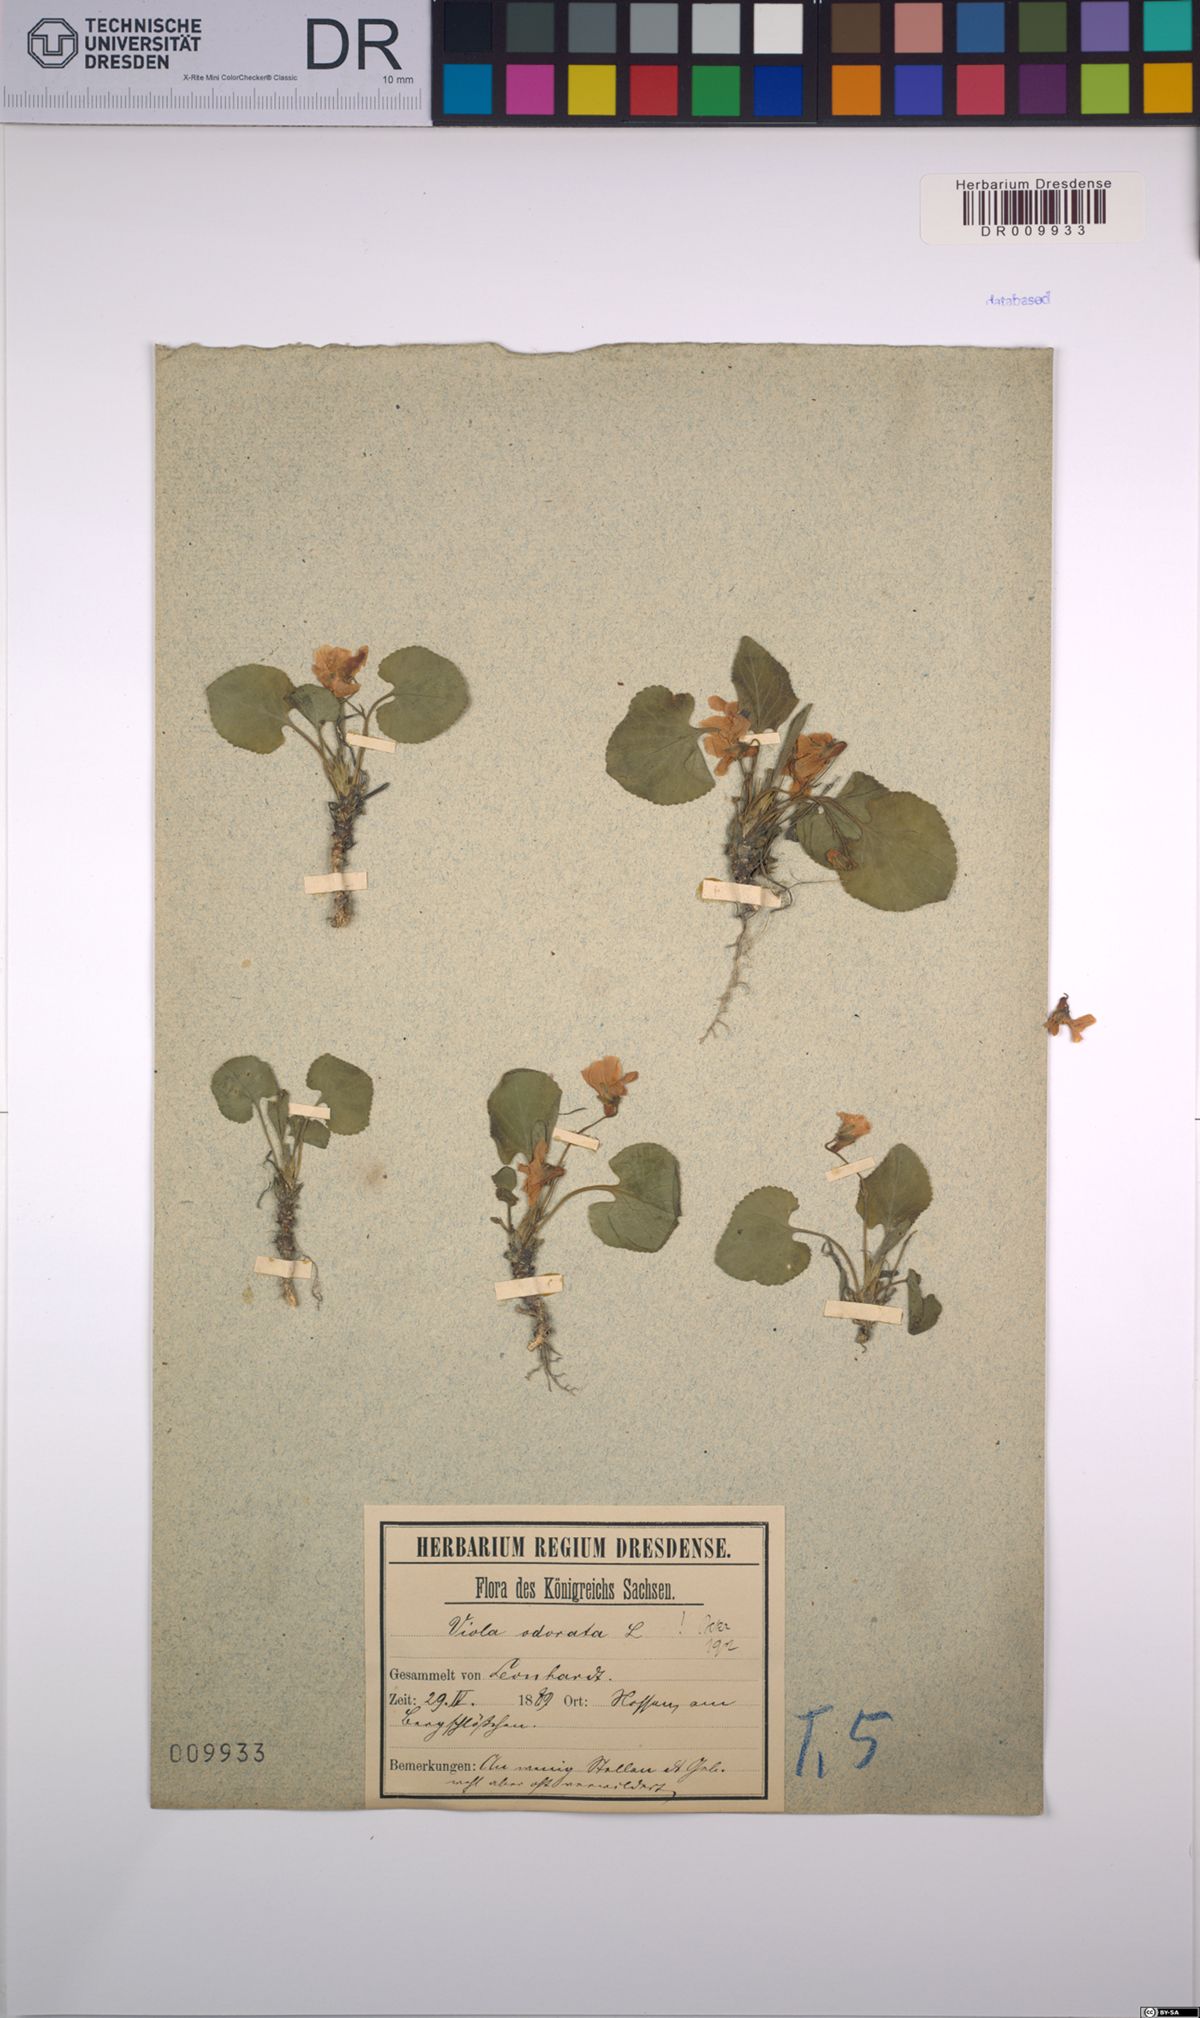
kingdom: Plantae
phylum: Tracheophyta
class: Magnoliopsida
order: Malpighiales
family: Violaceae
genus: Viola
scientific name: Viola odorata
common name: Sweet violet
